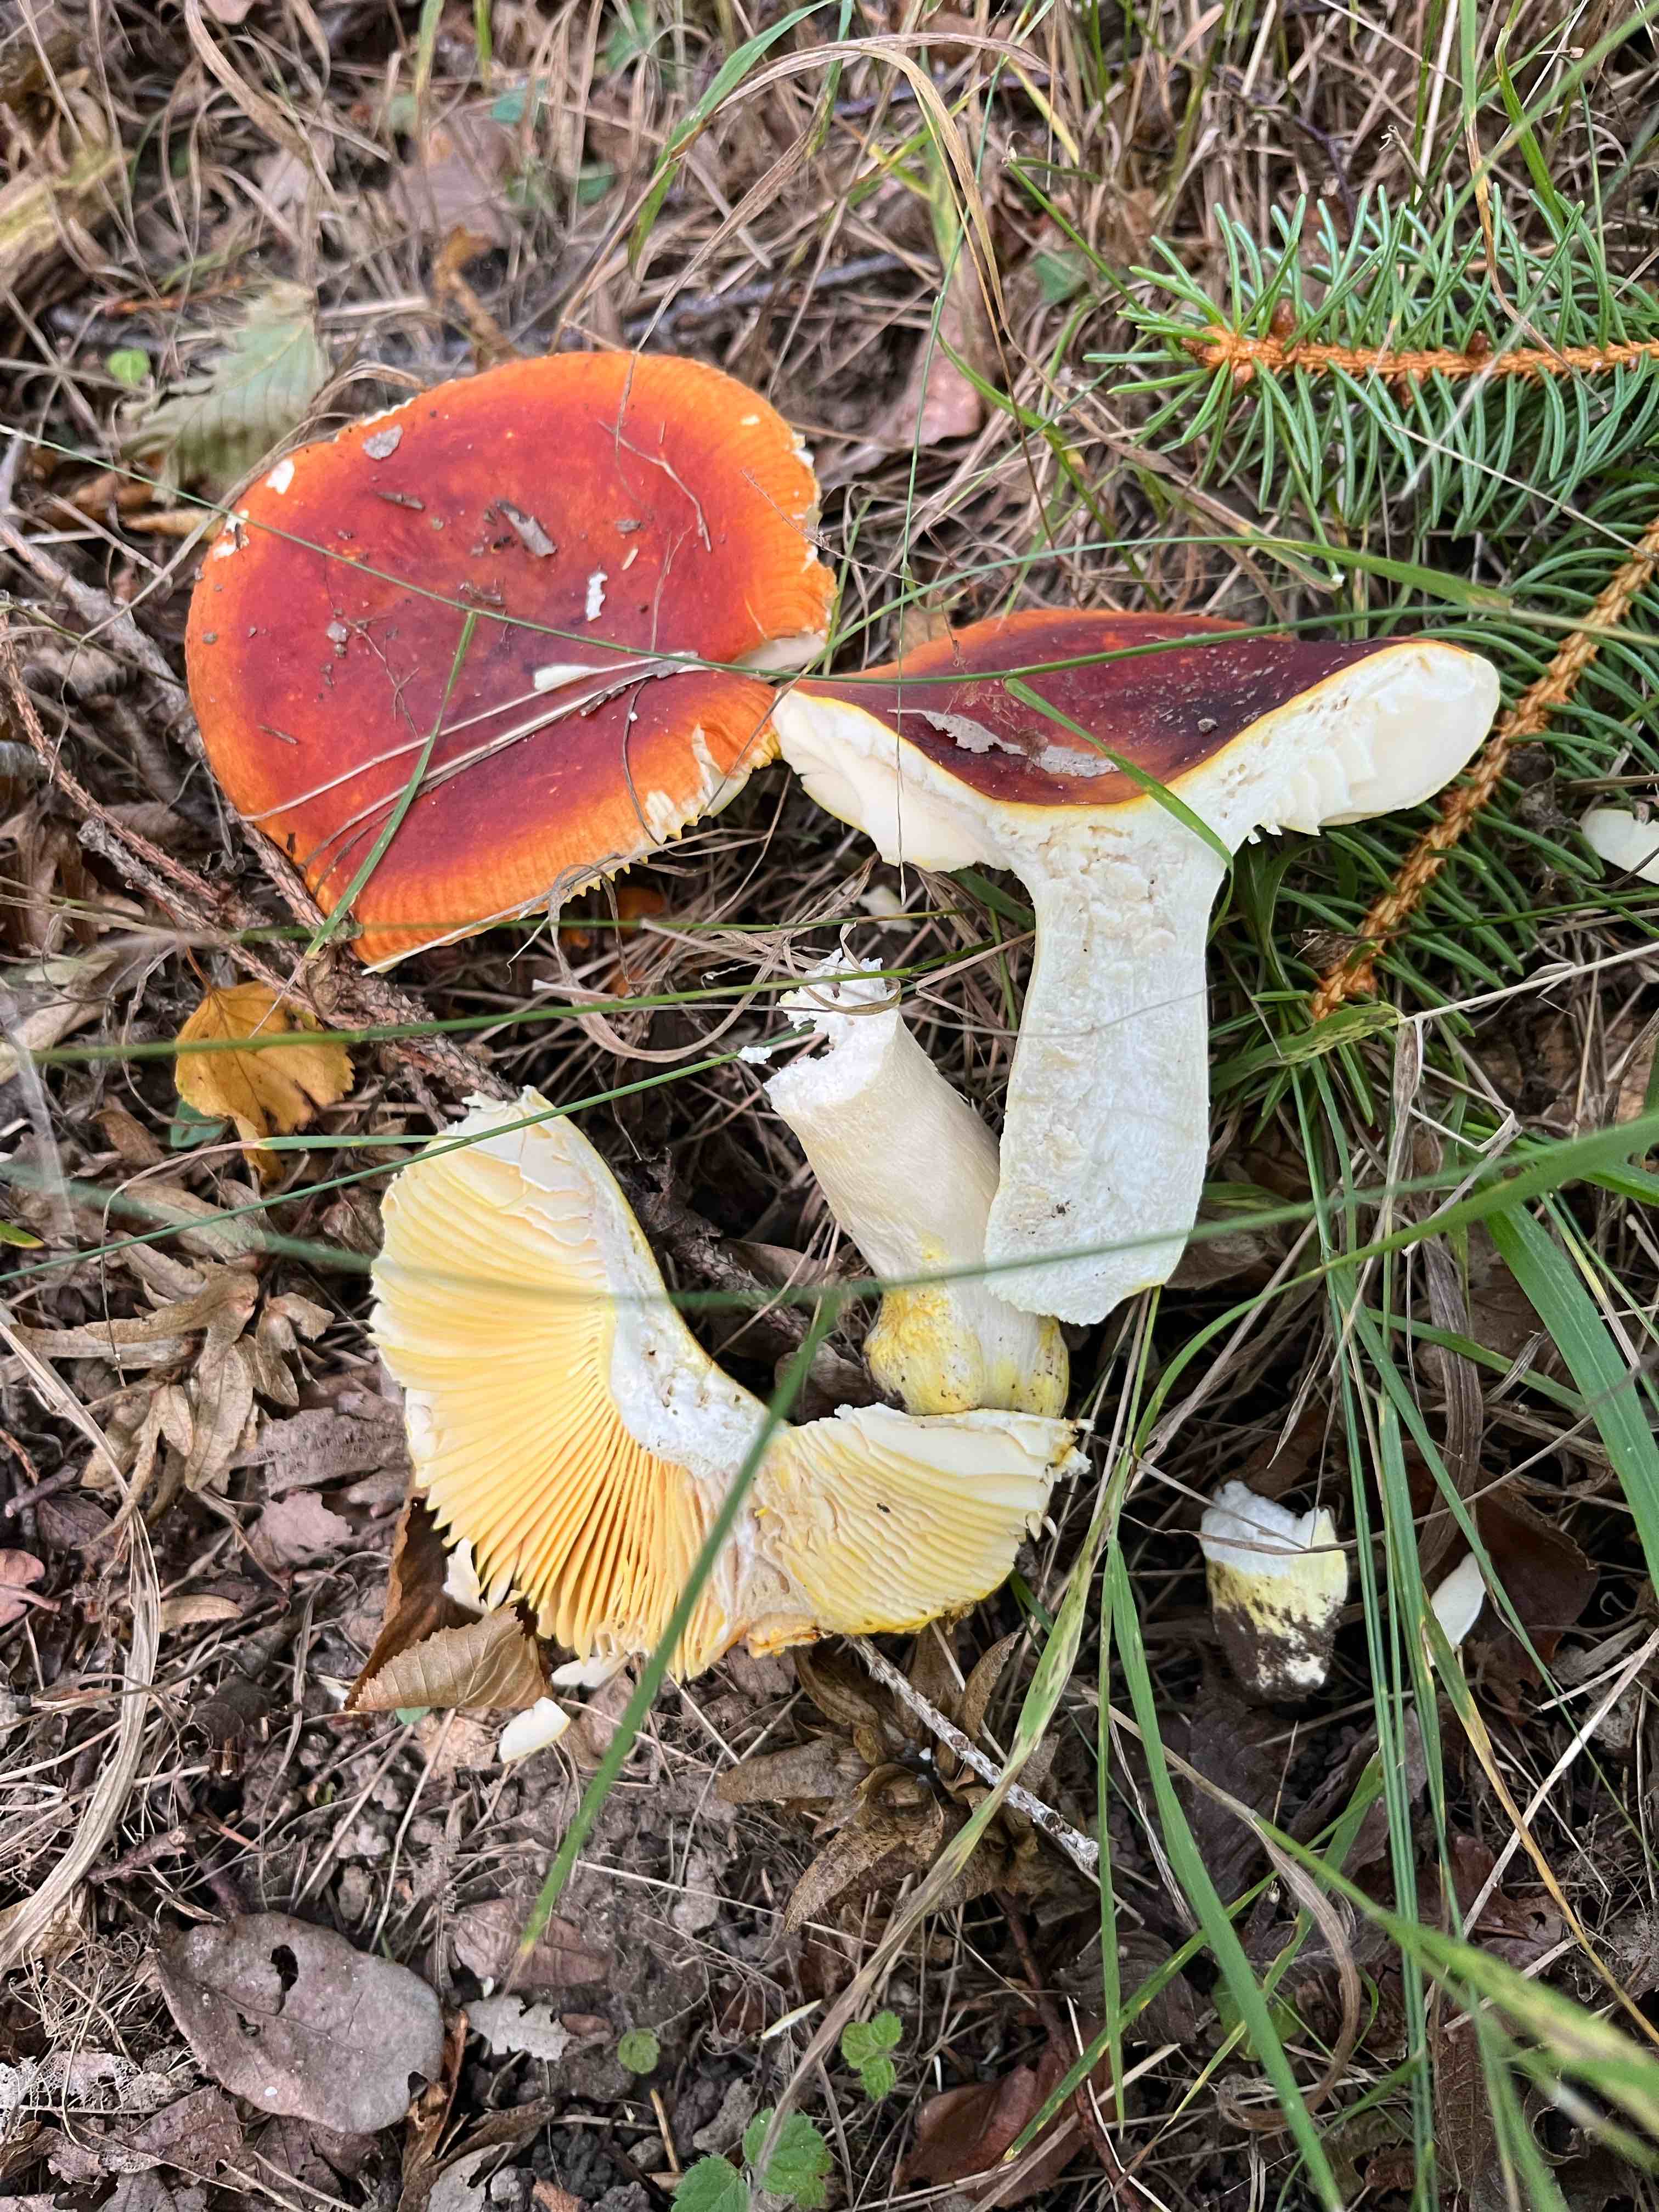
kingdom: Fungi
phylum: Basidiomycota
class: Agaricomycetes
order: Russulales
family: Russulaceae
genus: Russula
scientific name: Russula aurea
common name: gylden skørhat
